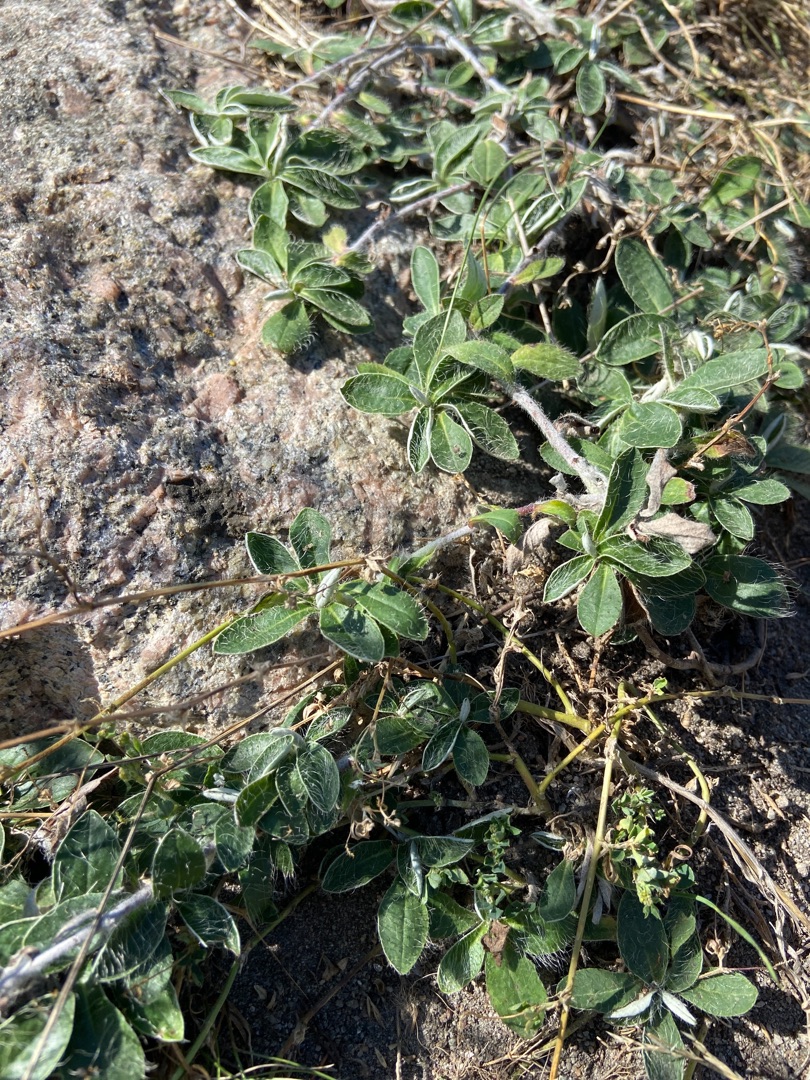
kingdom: Plantae
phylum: Tracheophyta
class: Magnoliopsida
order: Asterales
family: Asteraceae
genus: Pilosella
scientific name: Pilosella officinarum
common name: Håret høgeurt
